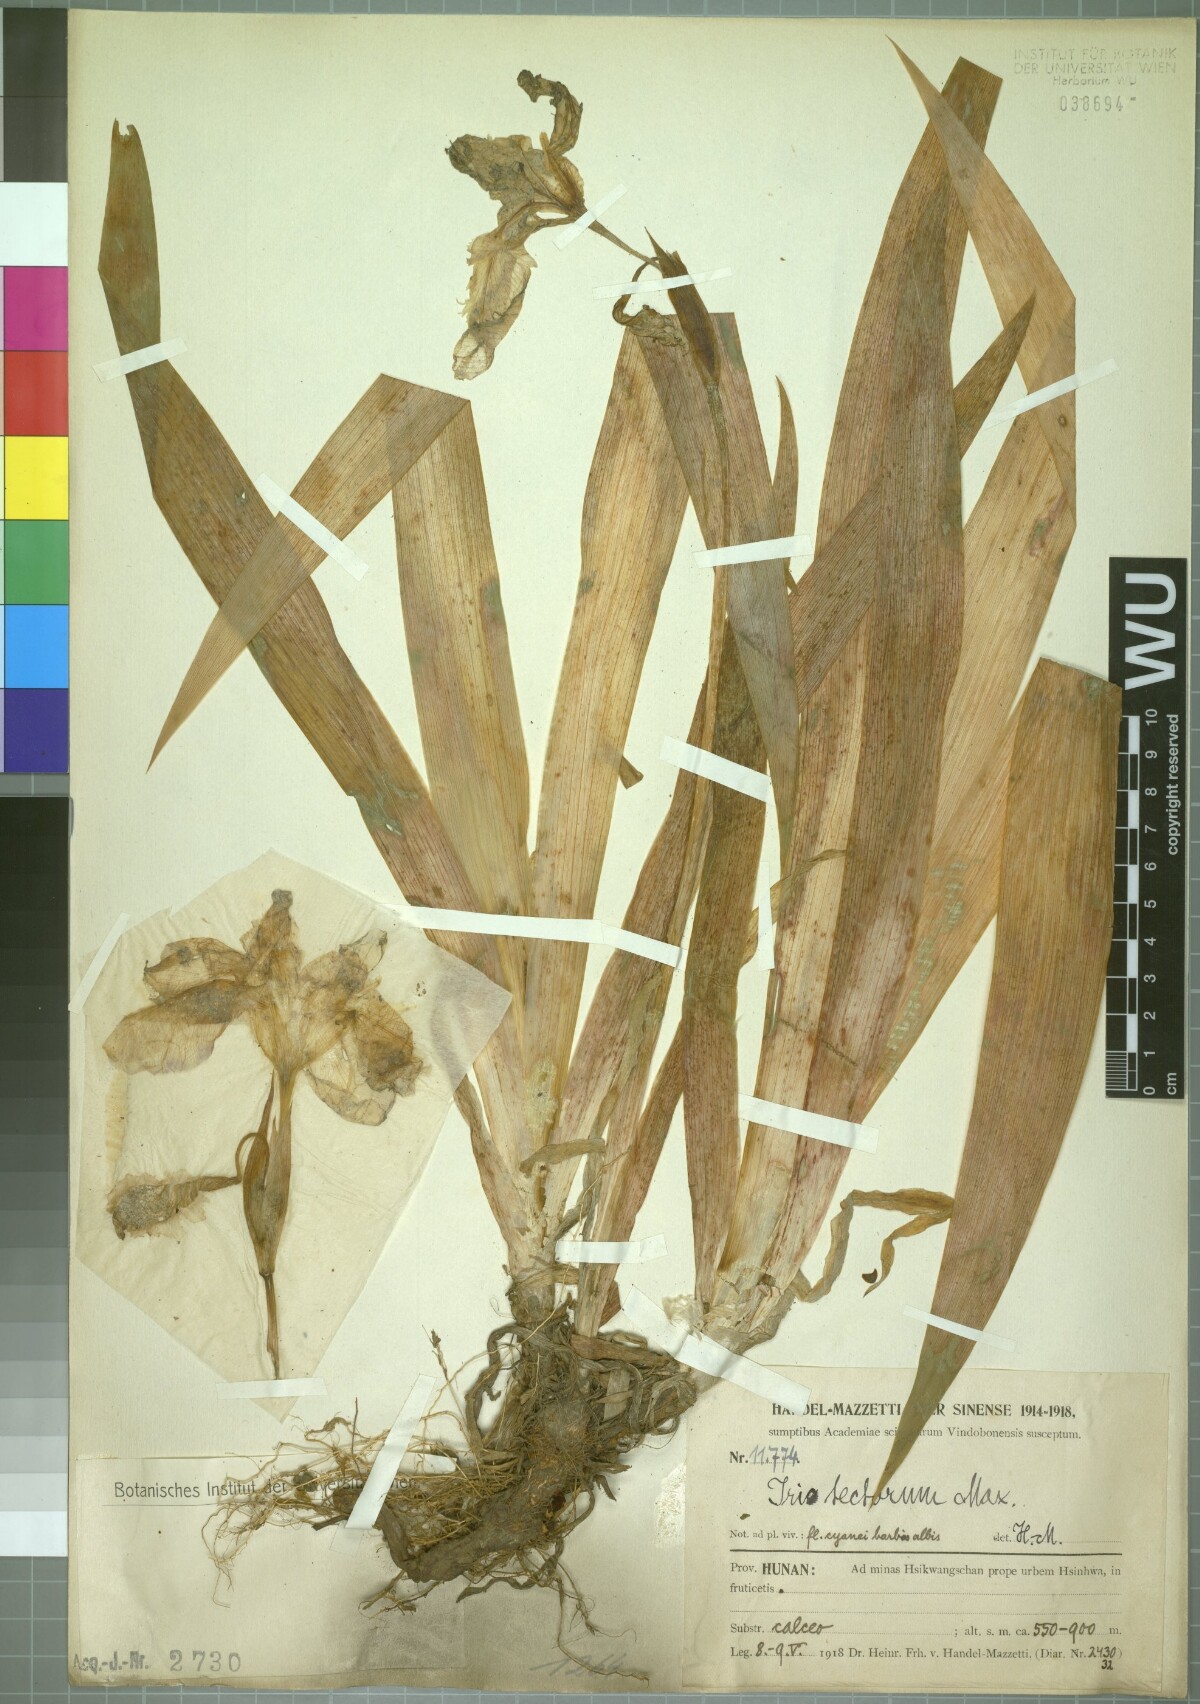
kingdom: Plantae
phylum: Tracheophyta
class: Liliopsida
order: Asparagales
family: Iridaceae
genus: Iris
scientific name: Iris tectorum
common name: Wall iris
